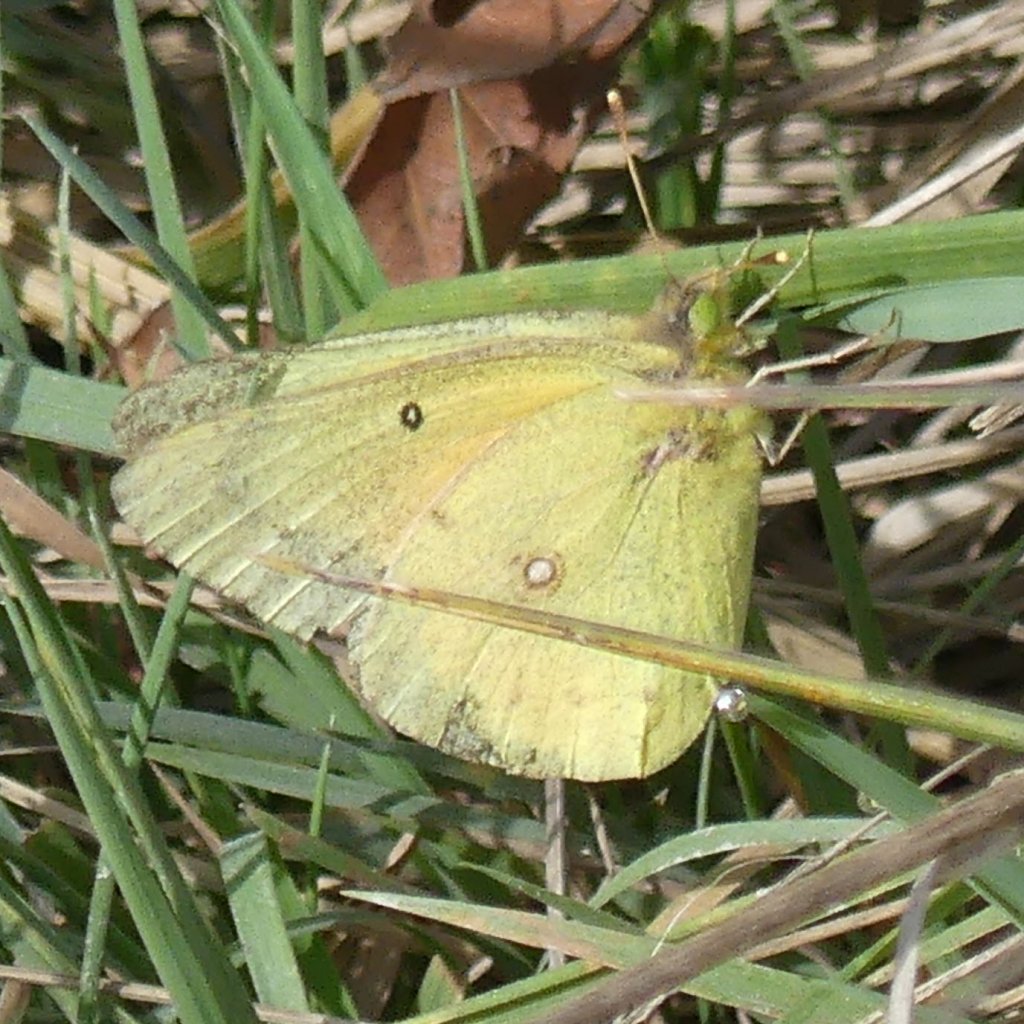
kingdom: Animalia
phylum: Arthropoda
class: Insecta
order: Lepidoptera
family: Pieridae
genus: Colias
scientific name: Colias eurytheme
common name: Orange Sulphur
